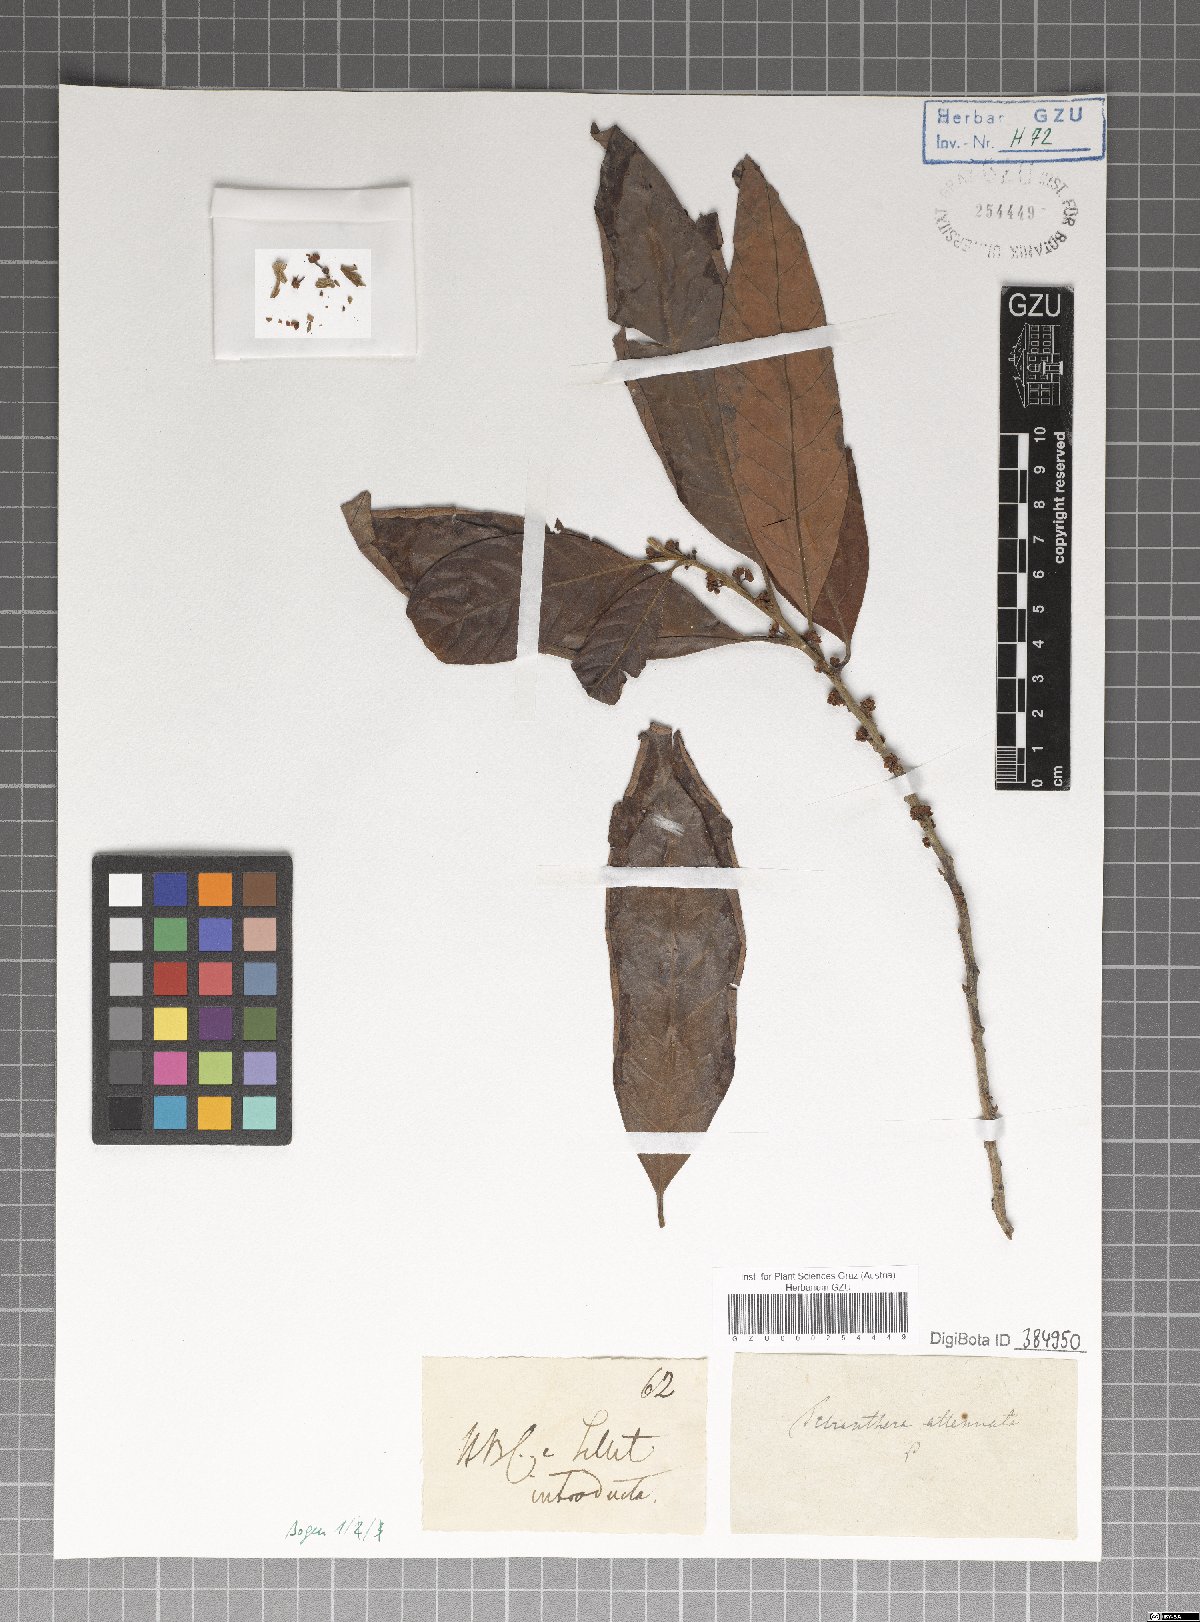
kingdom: Plantae
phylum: Tracheophyta
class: Magnoliopsida
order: Laurales
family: Lauraceae
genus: Litsea
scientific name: Litsea salicifolia
